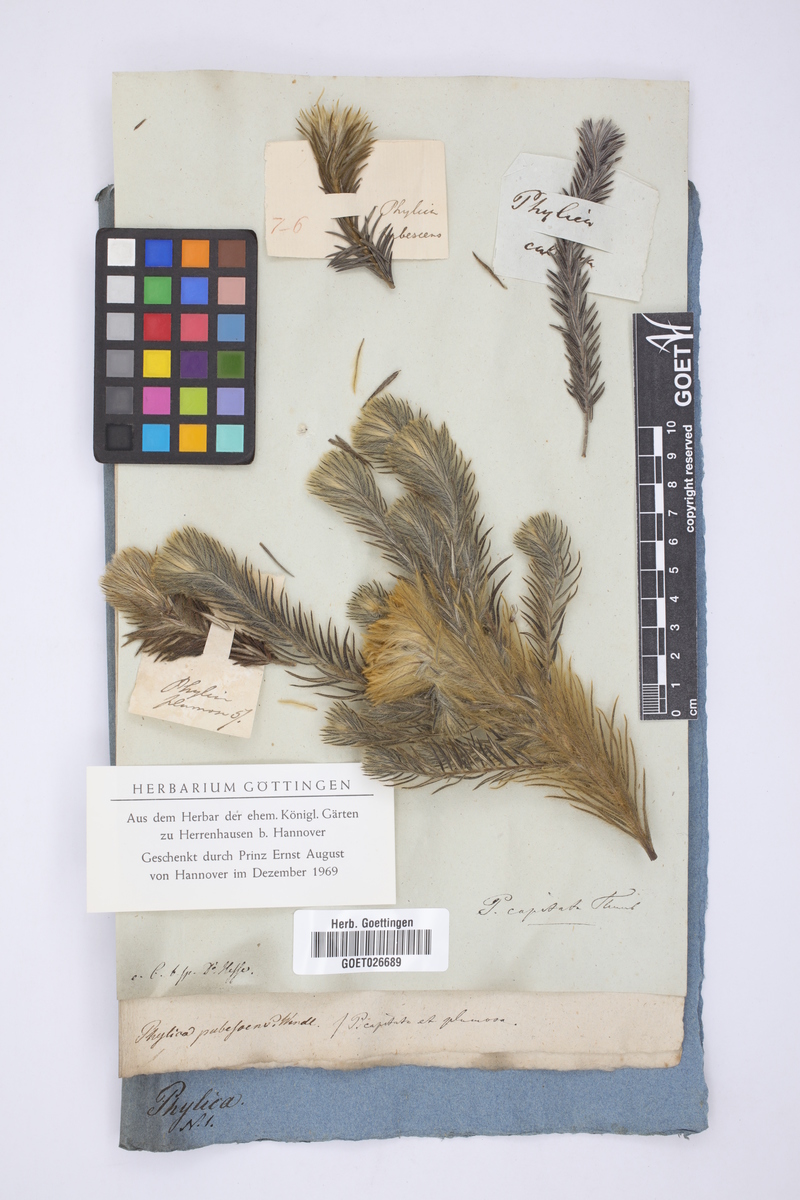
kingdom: Plantae
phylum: Tracheophyta
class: Magnoliopsida
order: Rosales
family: Rhamnaceae
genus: Phylica
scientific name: Phylica pubescens
